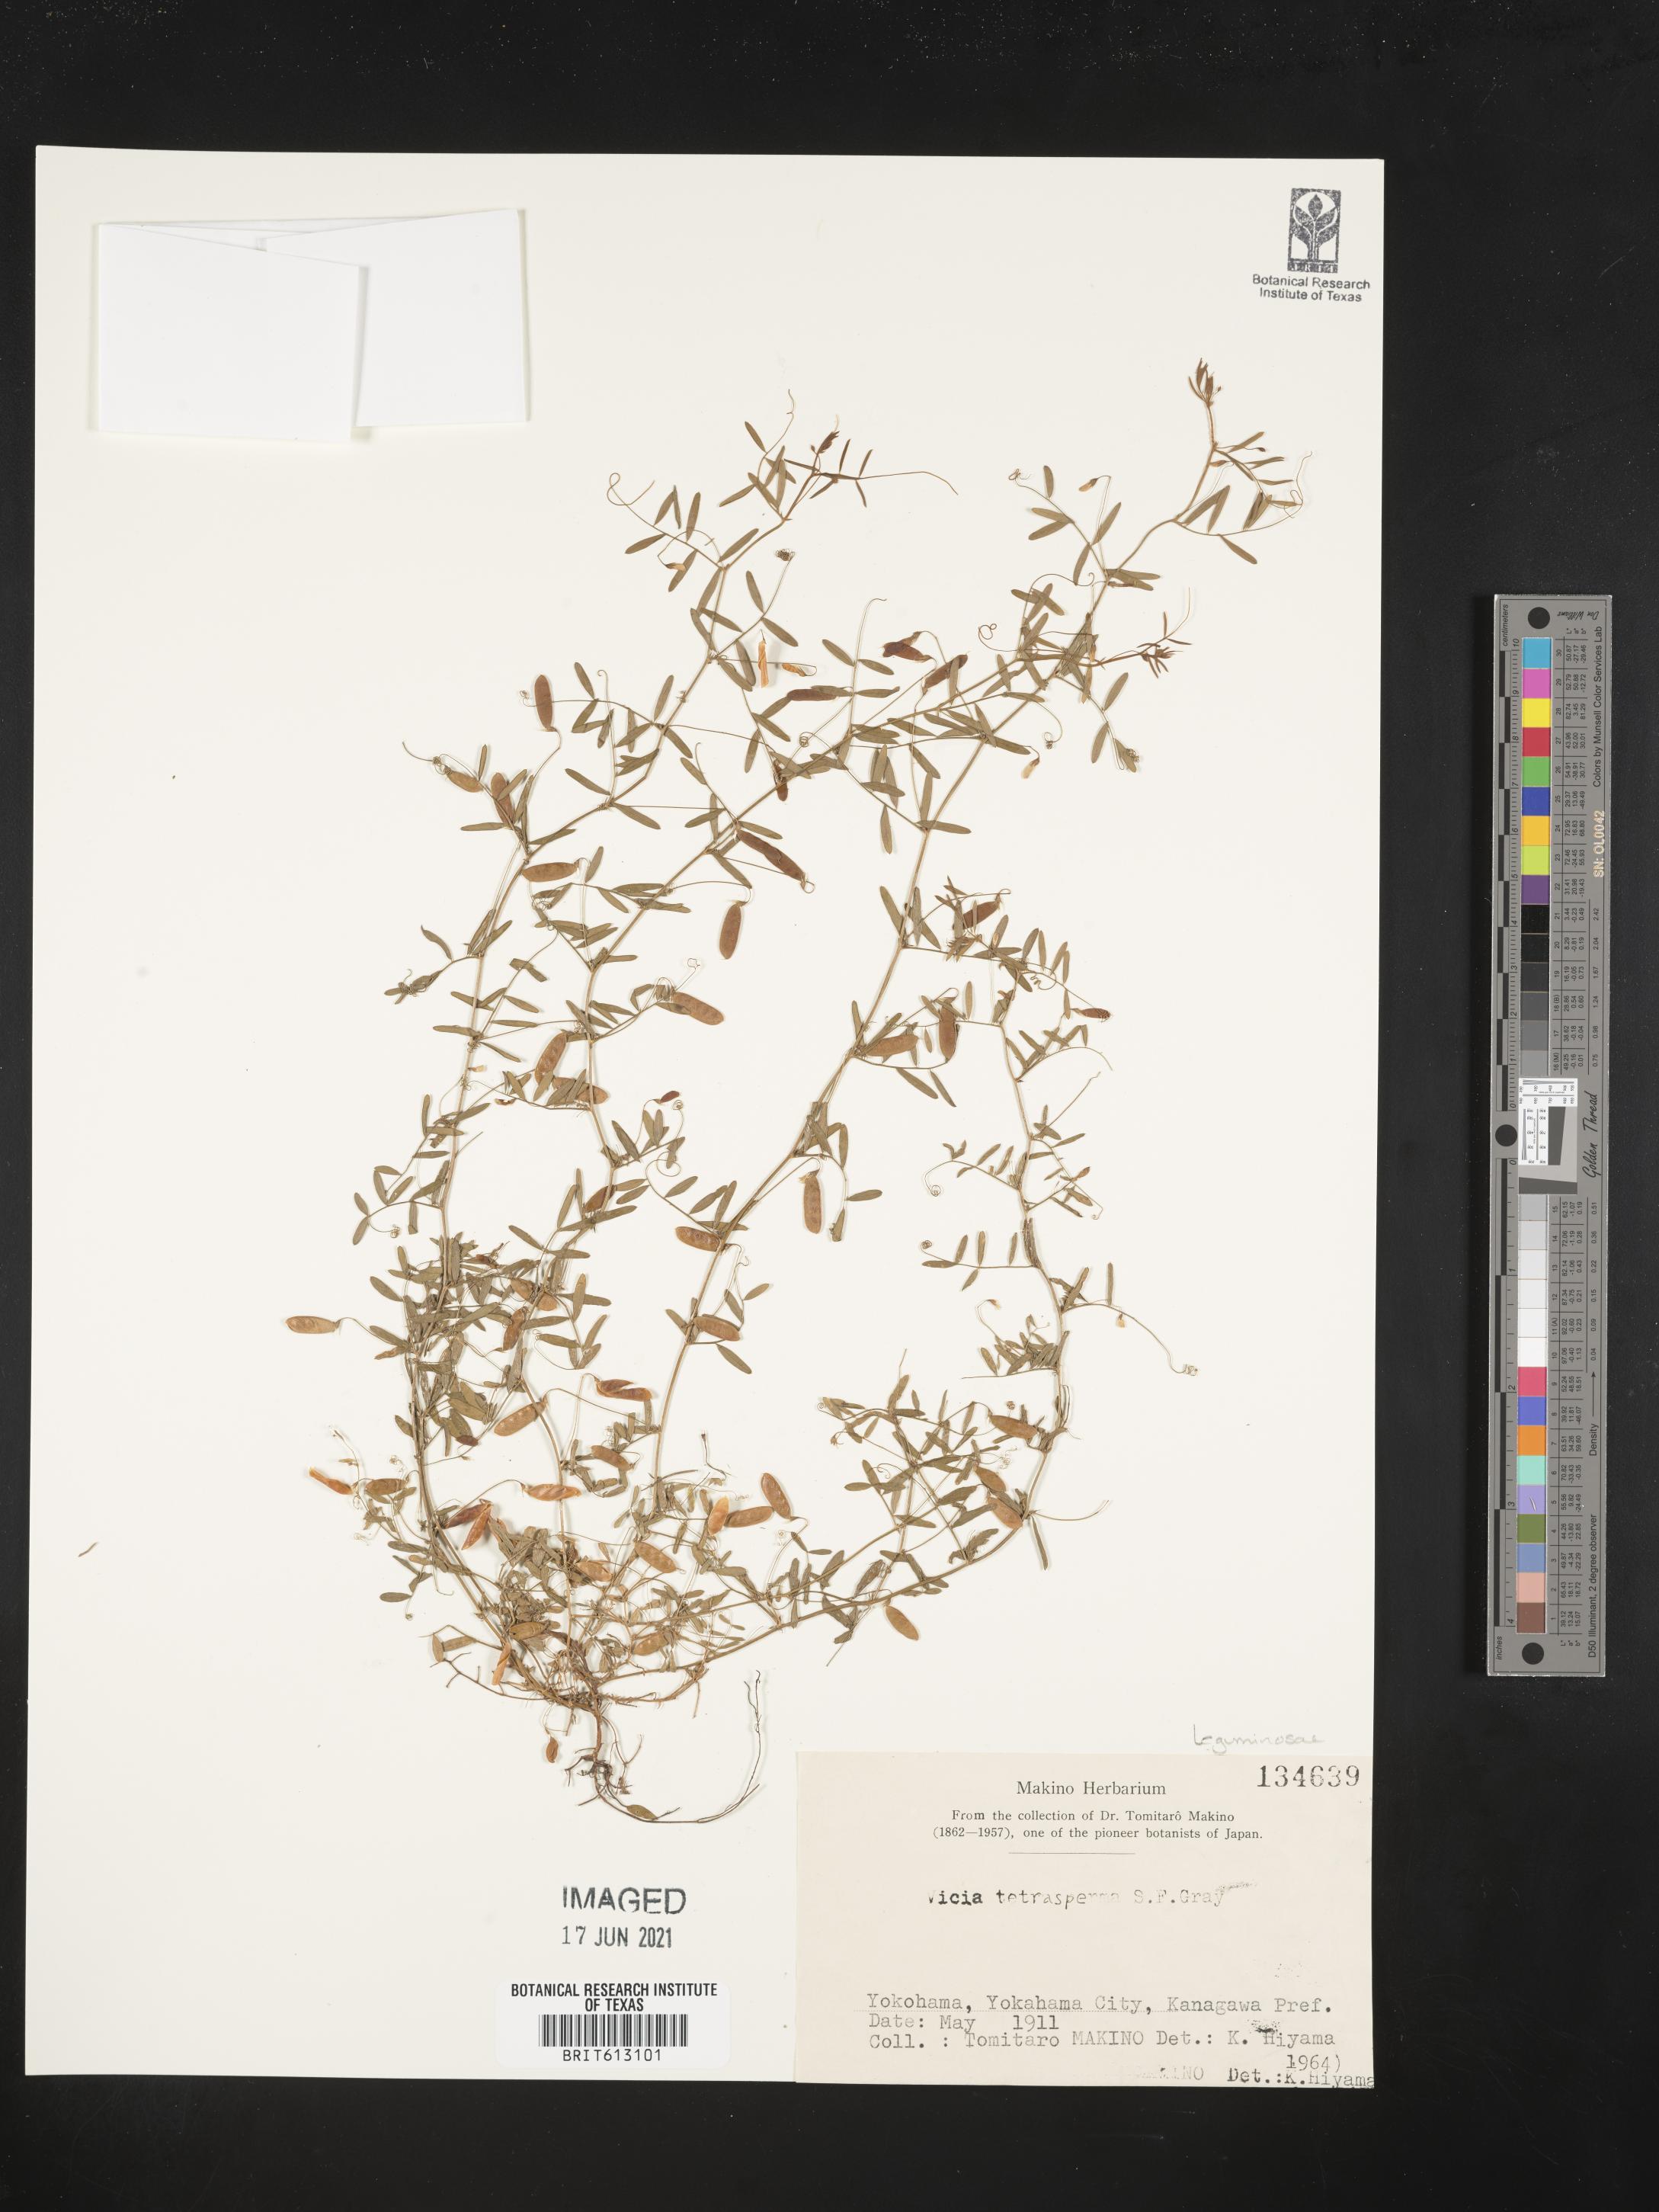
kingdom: Plantae
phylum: Tracheophyta
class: Magnoliopsida
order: Fabales
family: Fabaceae
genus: Vicia
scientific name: Vicia tetrasperma
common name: Smooth tare
